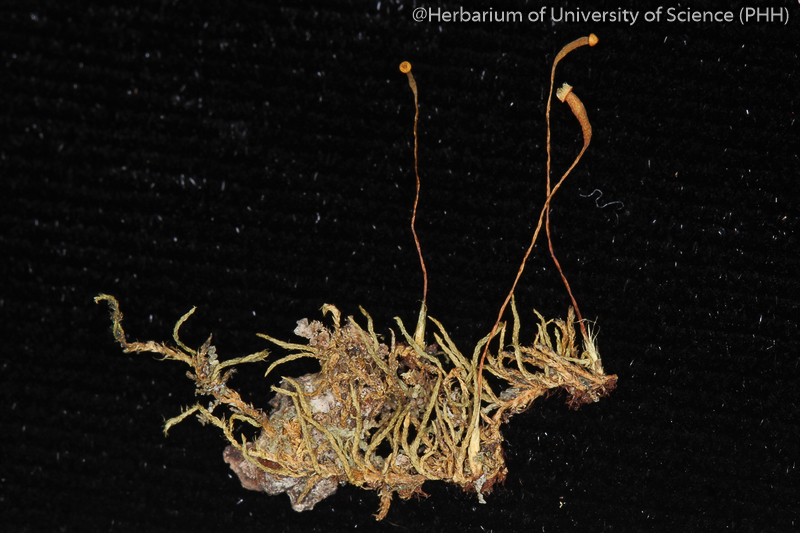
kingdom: Plantae
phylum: Bryophyta
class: Bryopsida
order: Hypnales
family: Leskeaceae
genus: Haplocladium
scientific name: Haplocladium microphyllum
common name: Tiny-leaved haplocladium
